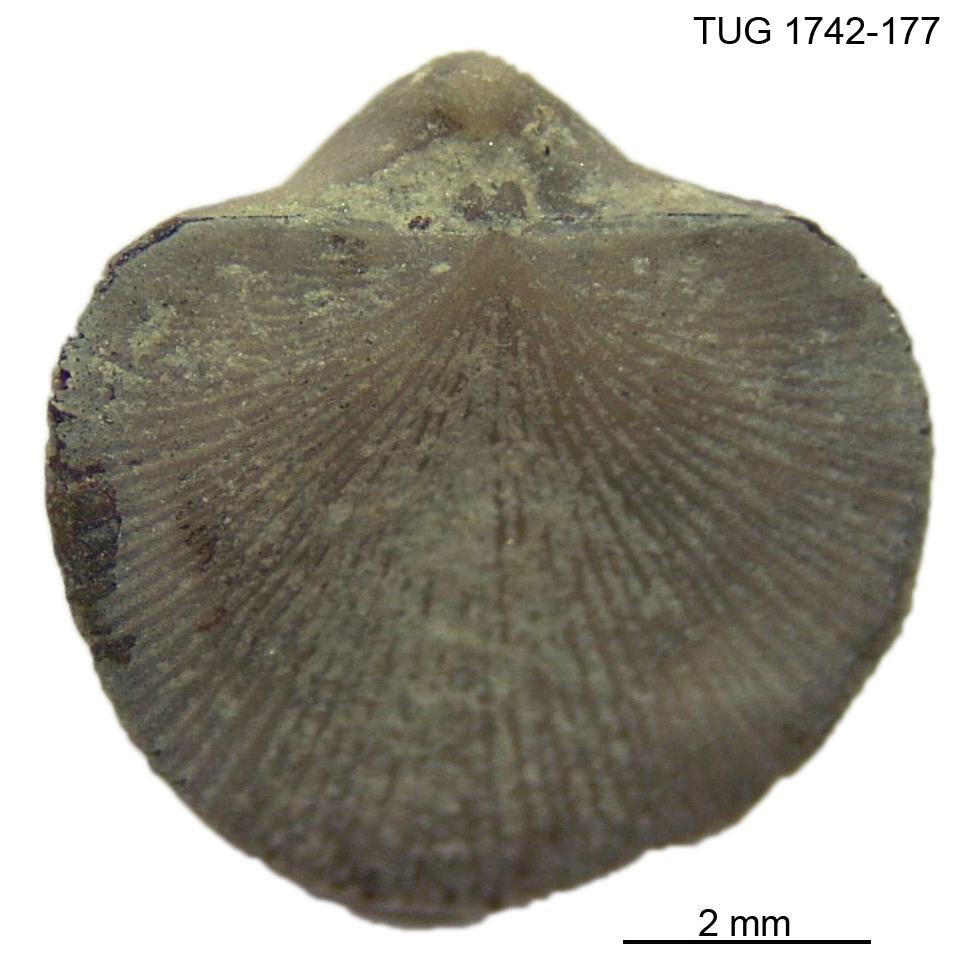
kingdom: Animalia
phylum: Brachiopoda
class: Rhynchonellata
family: Dalmanellidae
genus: Visbyella
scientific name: Visbyella pygmae
